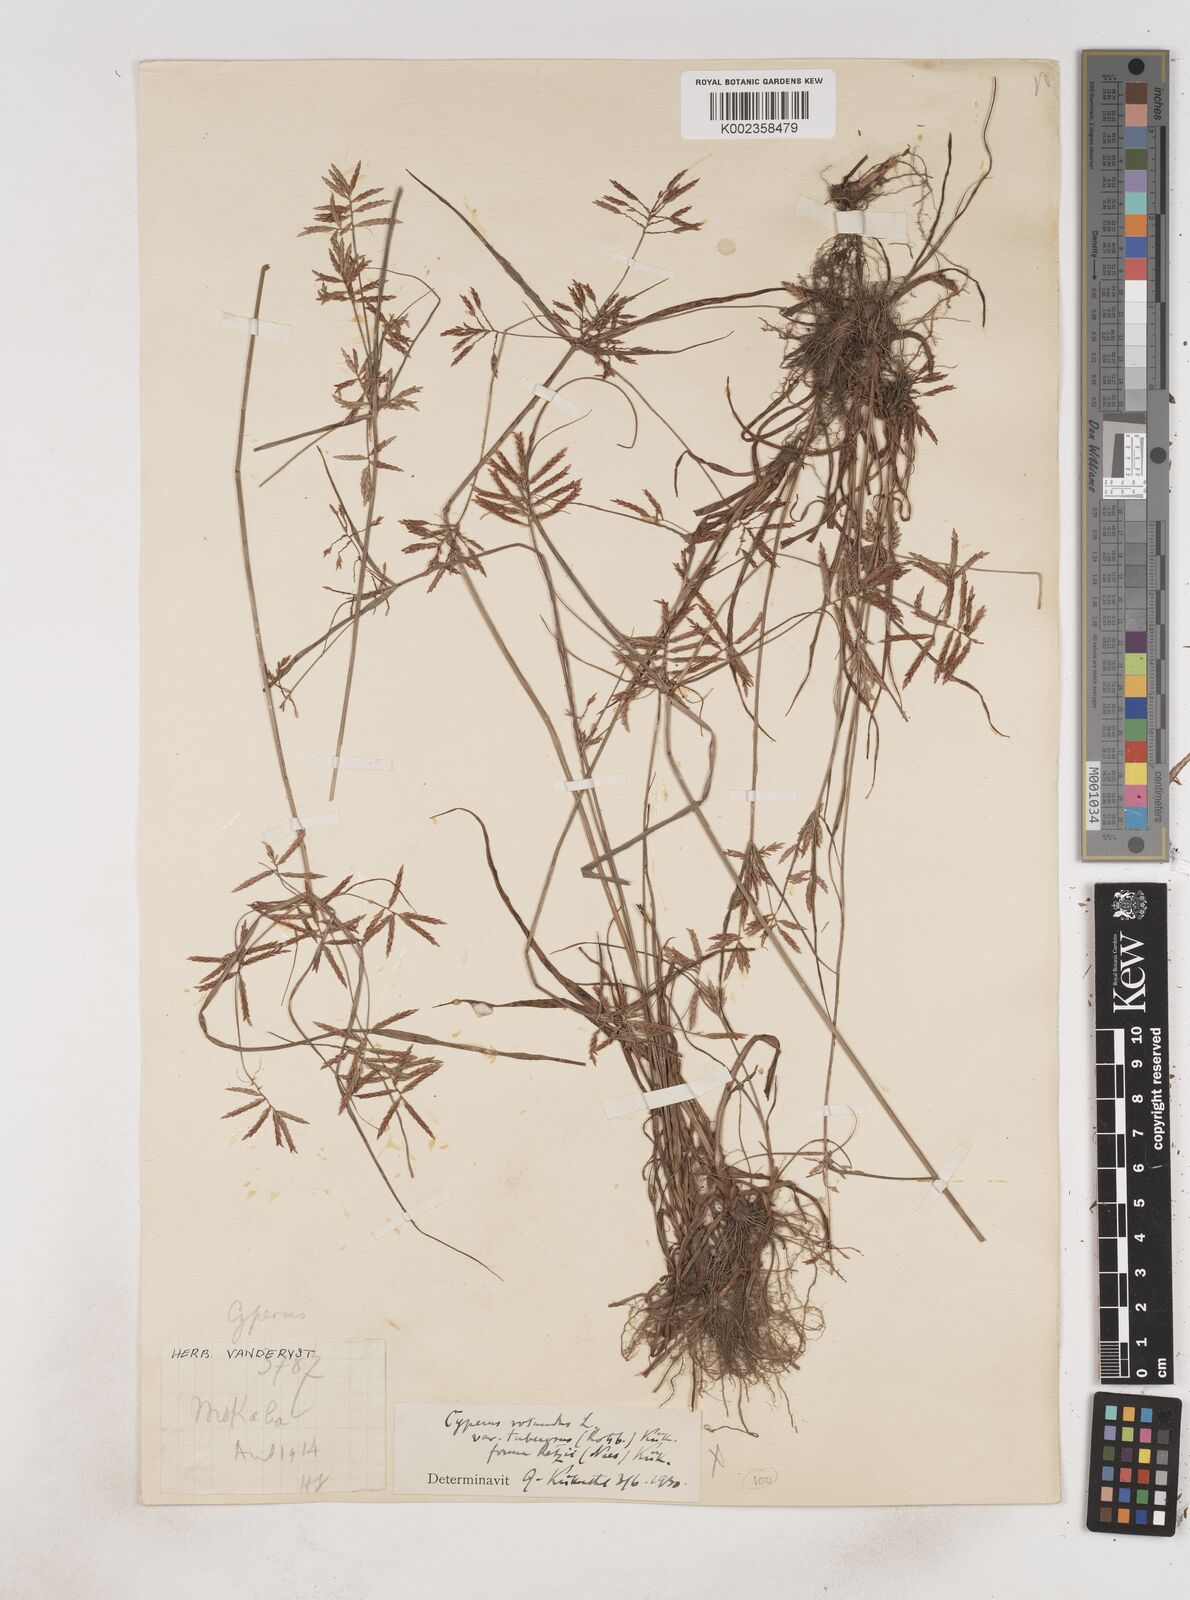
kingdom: Plantae
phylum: Tracheophyta
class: Liliopsida
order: Poales
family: Cyperaceae
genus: Cyperus
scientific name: Cyperus dilatatus
